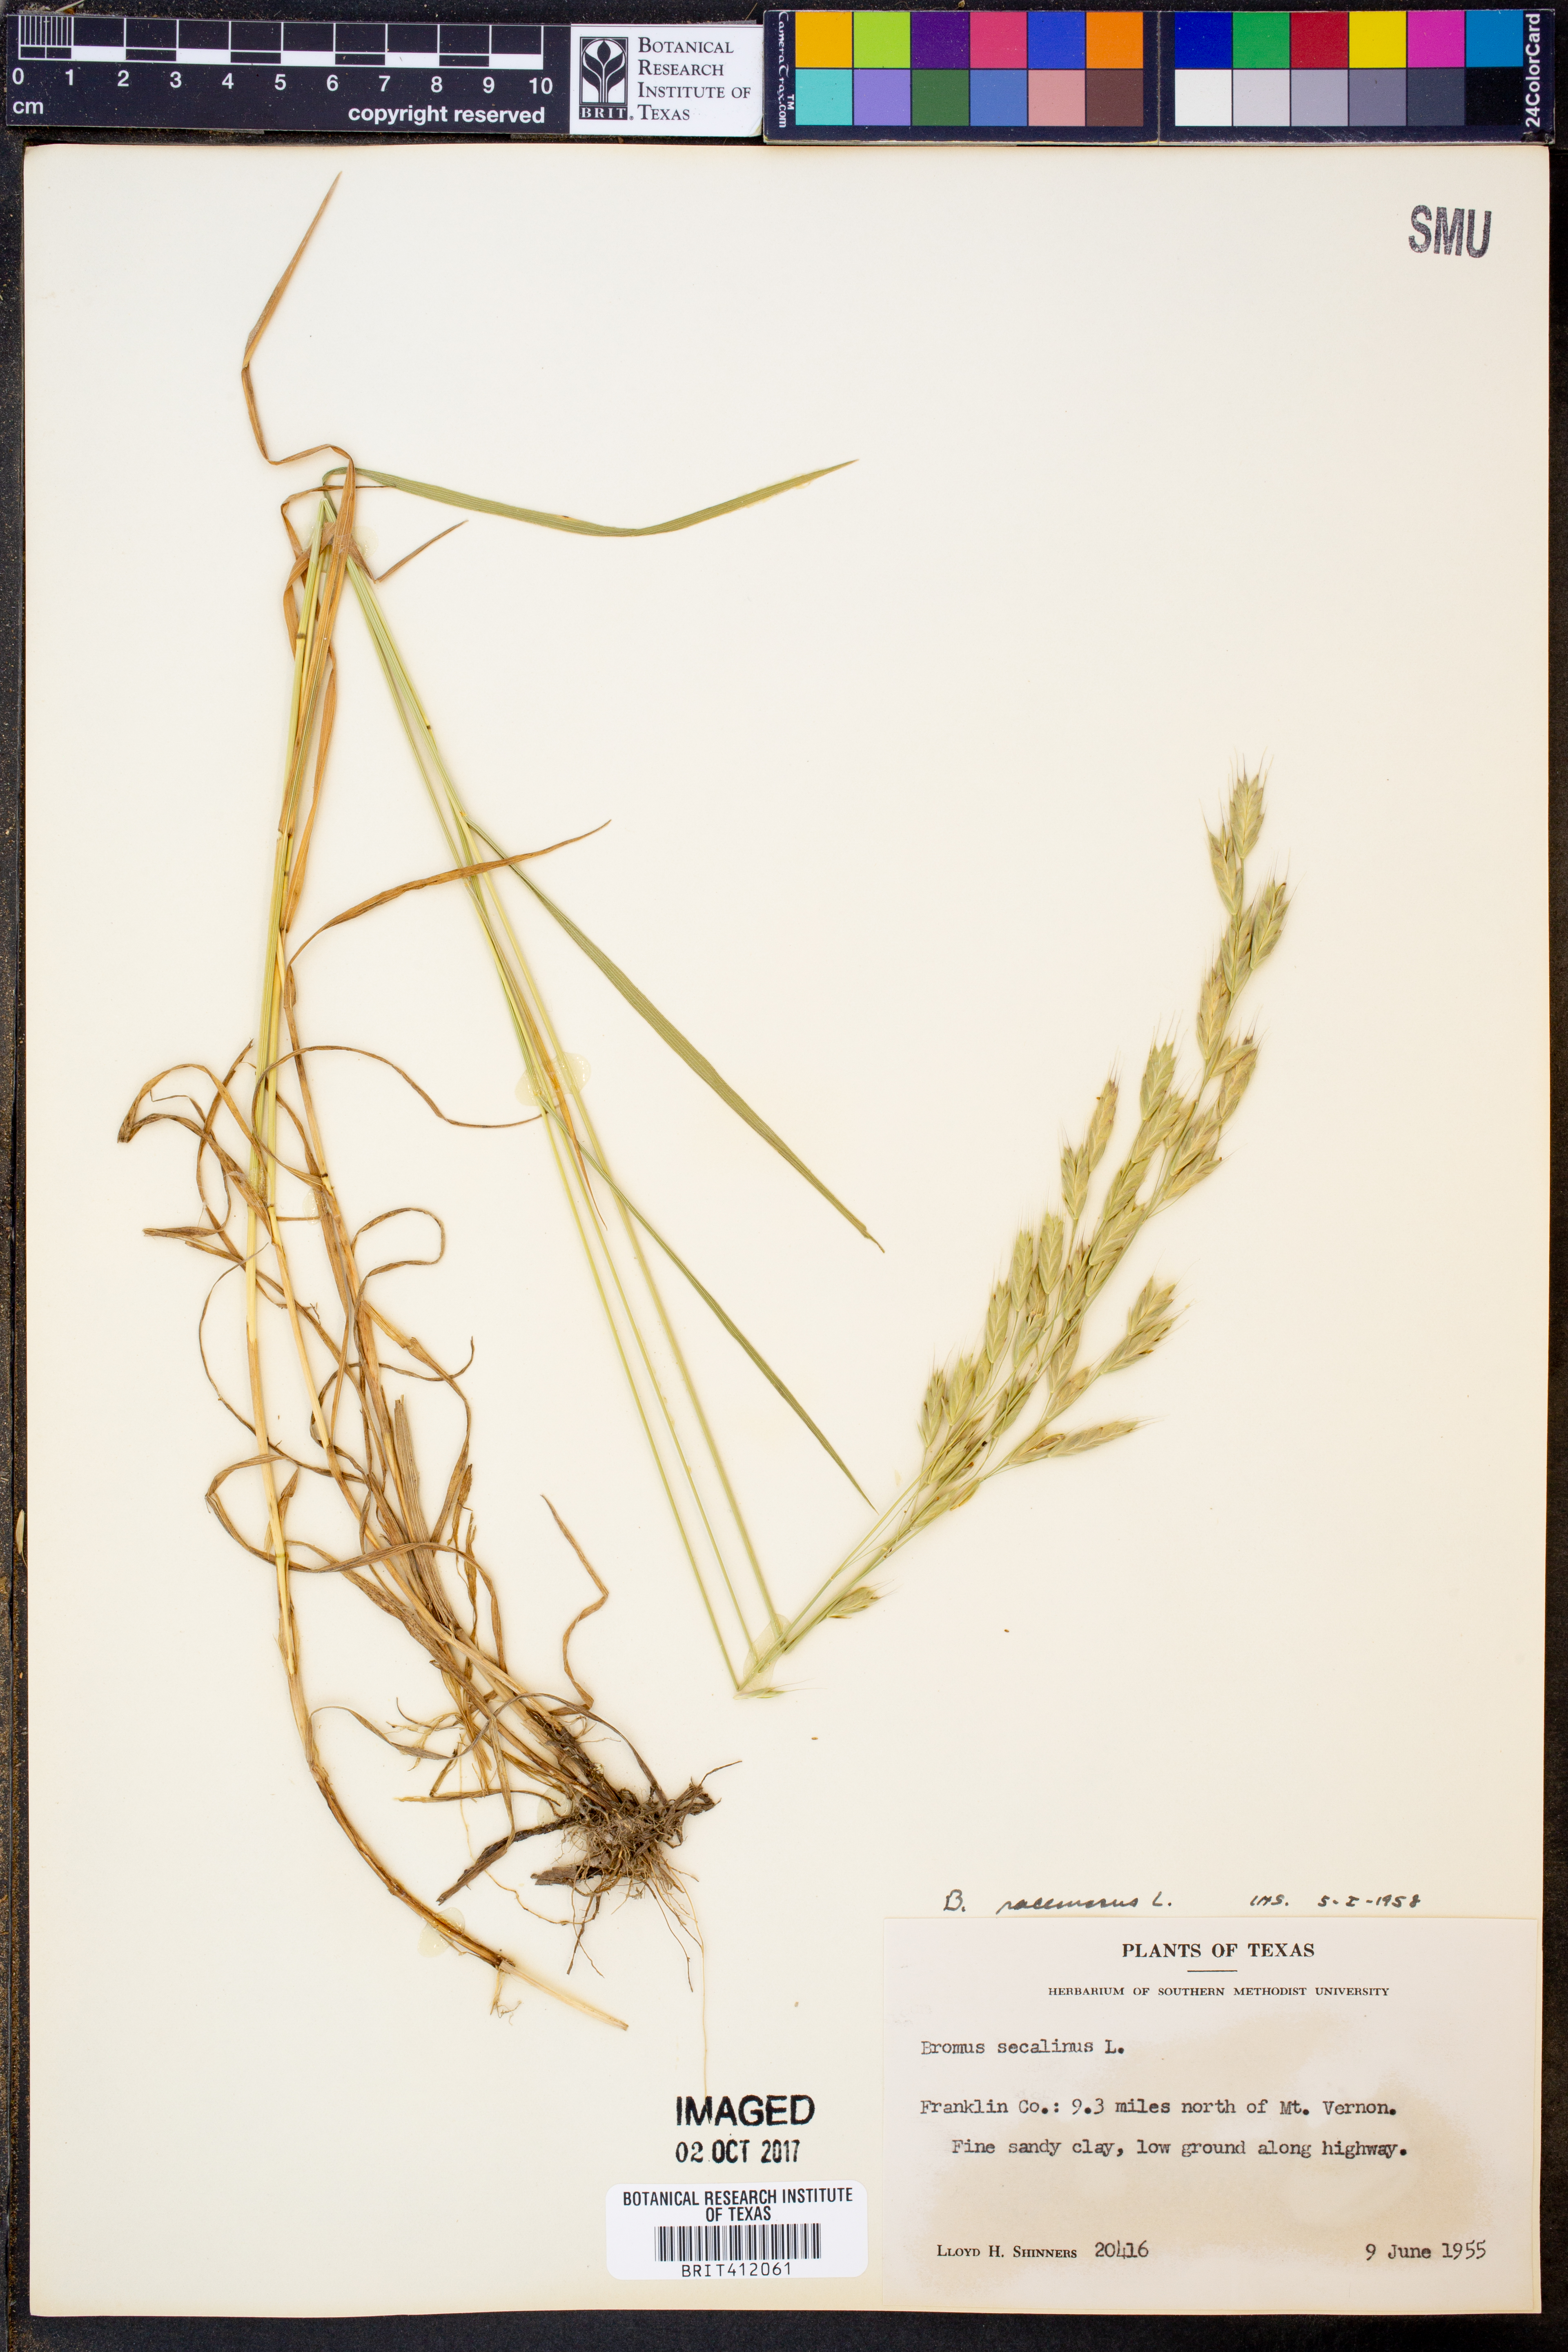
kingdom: Plantae
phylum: Tracheophyta
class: Liliopsida
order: Poales
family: Poaceae
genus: Bromus
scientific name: Bromus racemosus
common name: Bald brome
